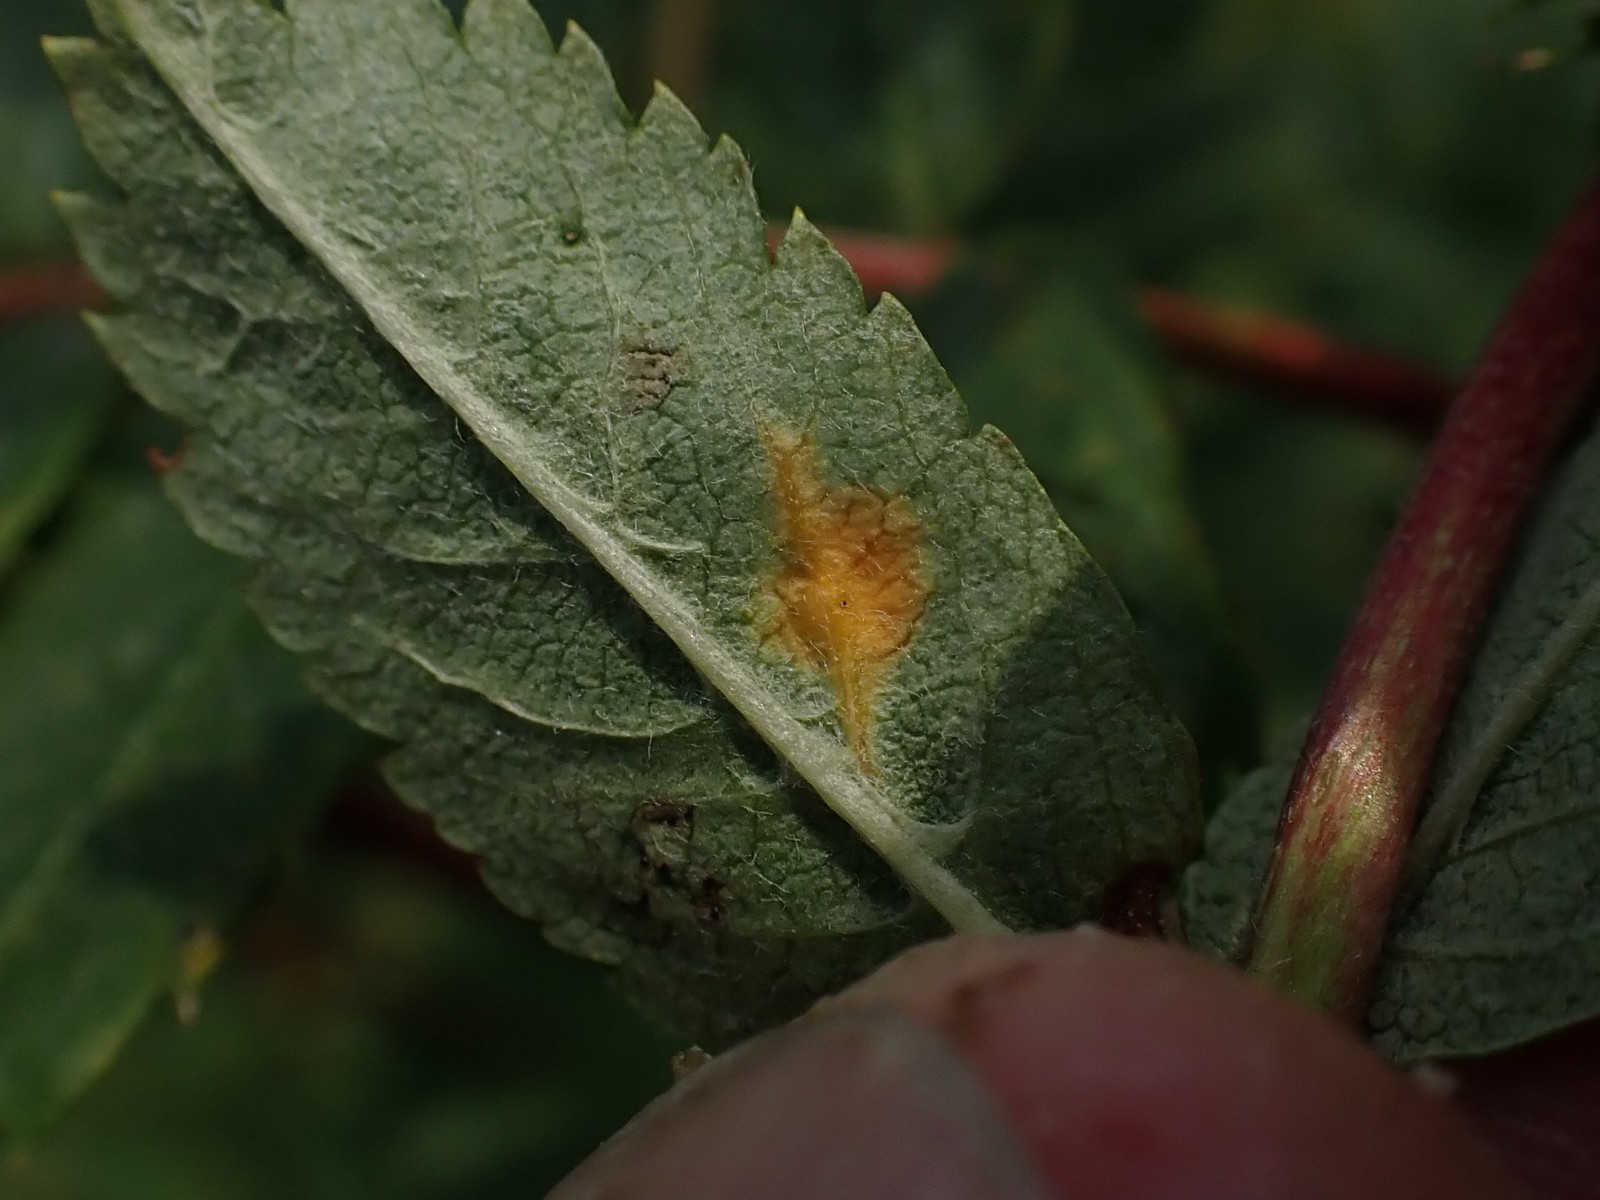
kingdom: Fungi
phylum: Basidiomycota
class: Pucciniomycetes
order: Pucciniales
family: Gymnosporangiaceae
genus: Gymnosporangium
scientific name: Gymnosporangium cornutum
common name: rønnehorn-bævrerust
